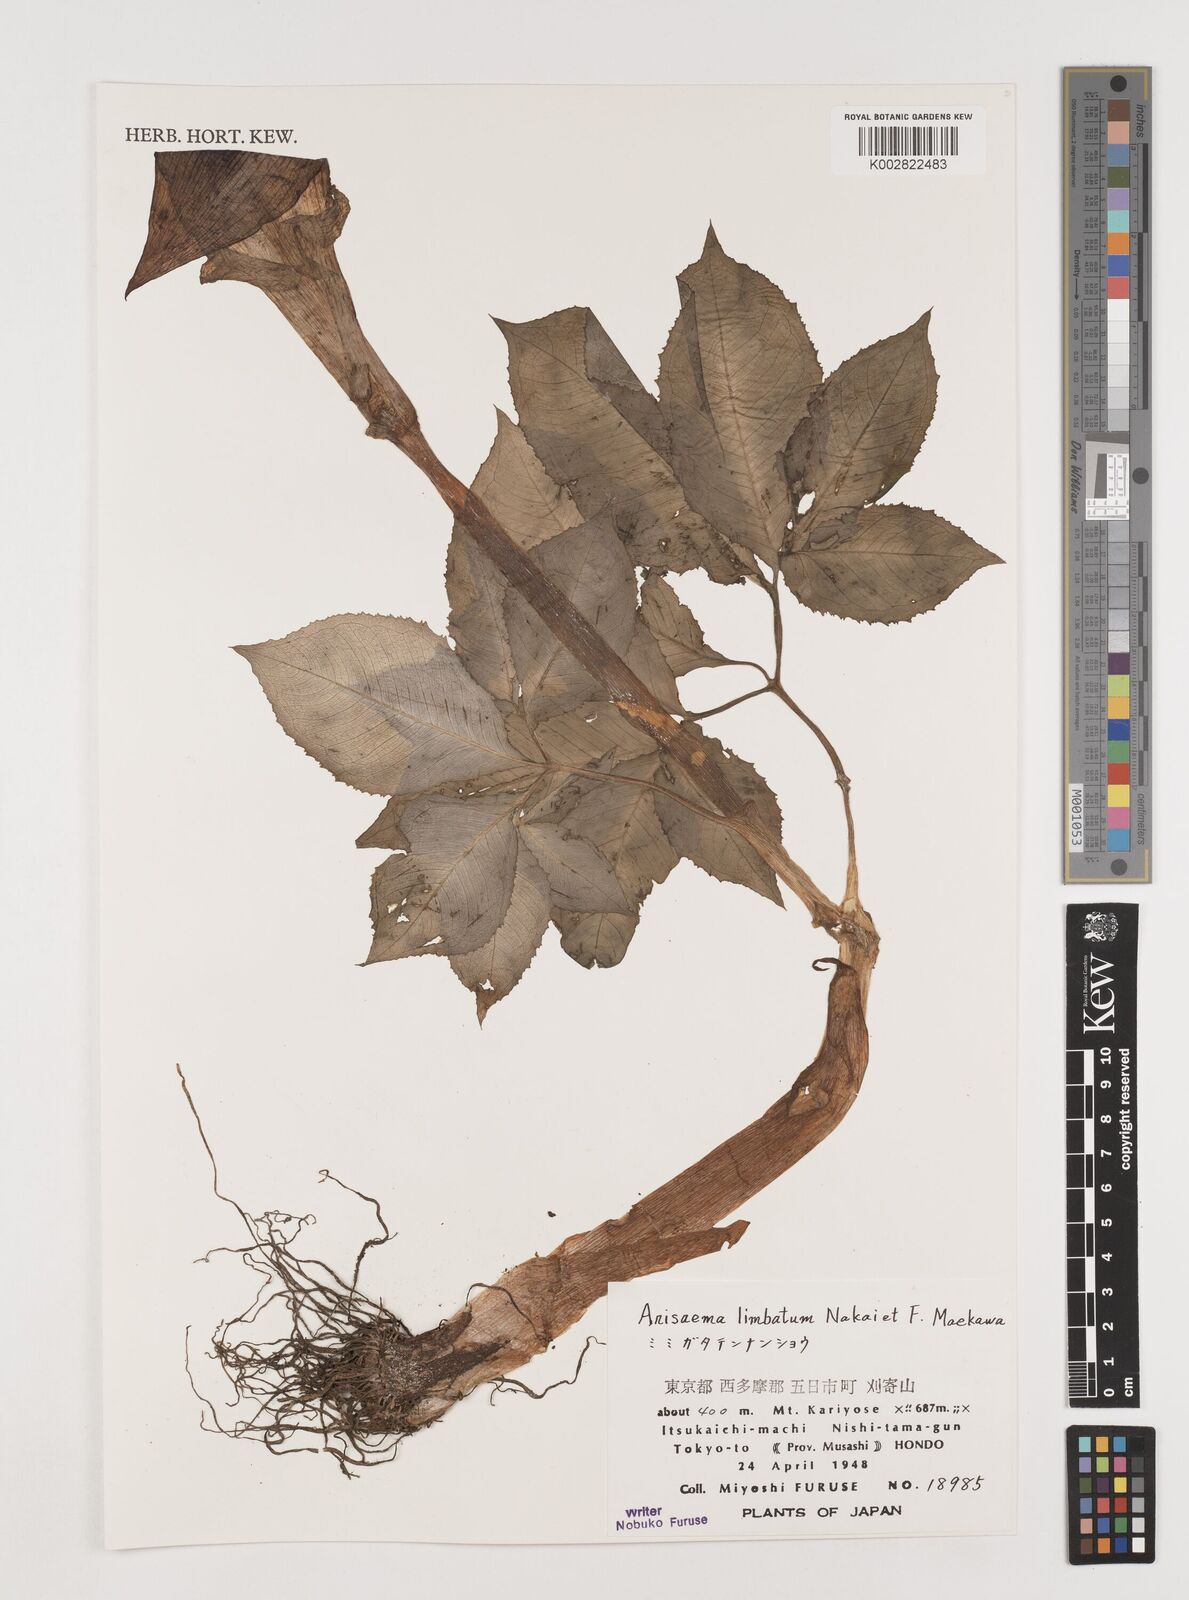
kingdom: Plantae
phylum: Tracheophyta
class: Liliopsida
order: Alismatales
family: Araceae
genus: Arisaema
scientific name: Arisaema limbatum
